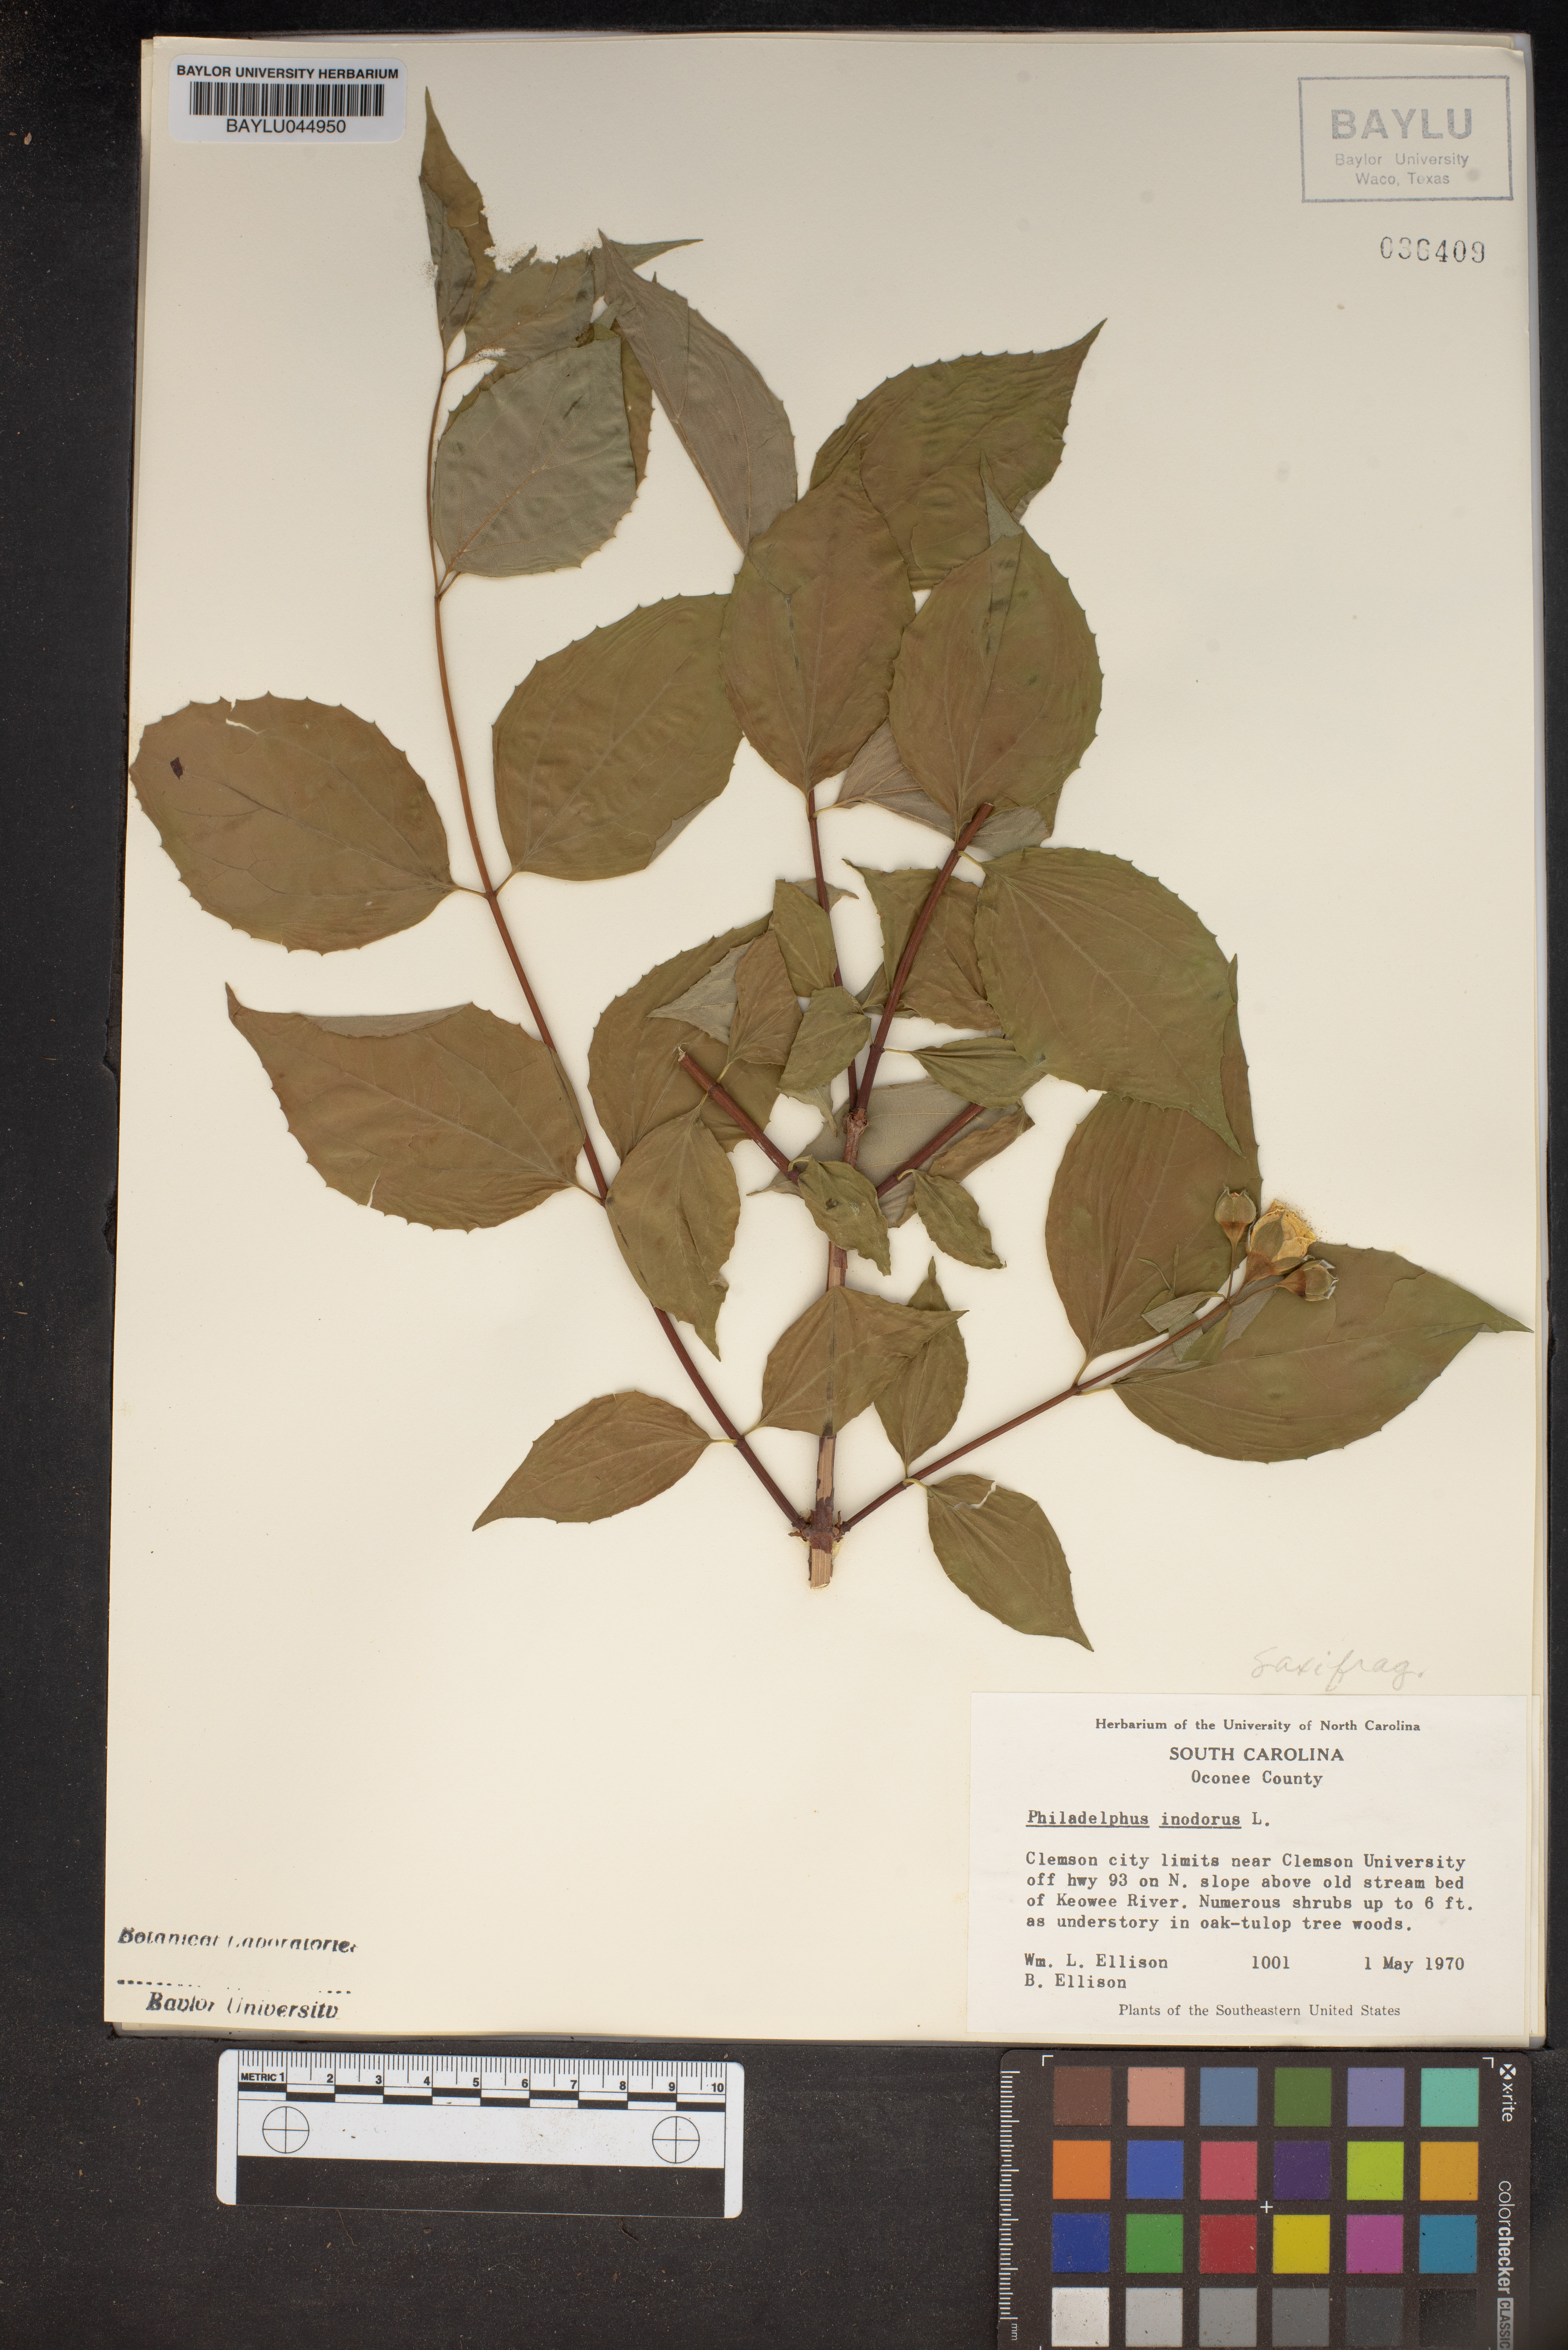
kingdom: Plantae
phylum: Tracheophyta
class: Magnoliopsida
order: Cornales
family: Hydrangeaceae
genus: Philadelphus
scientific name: Philadelphus inodorus
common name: Scentless mock-orange
